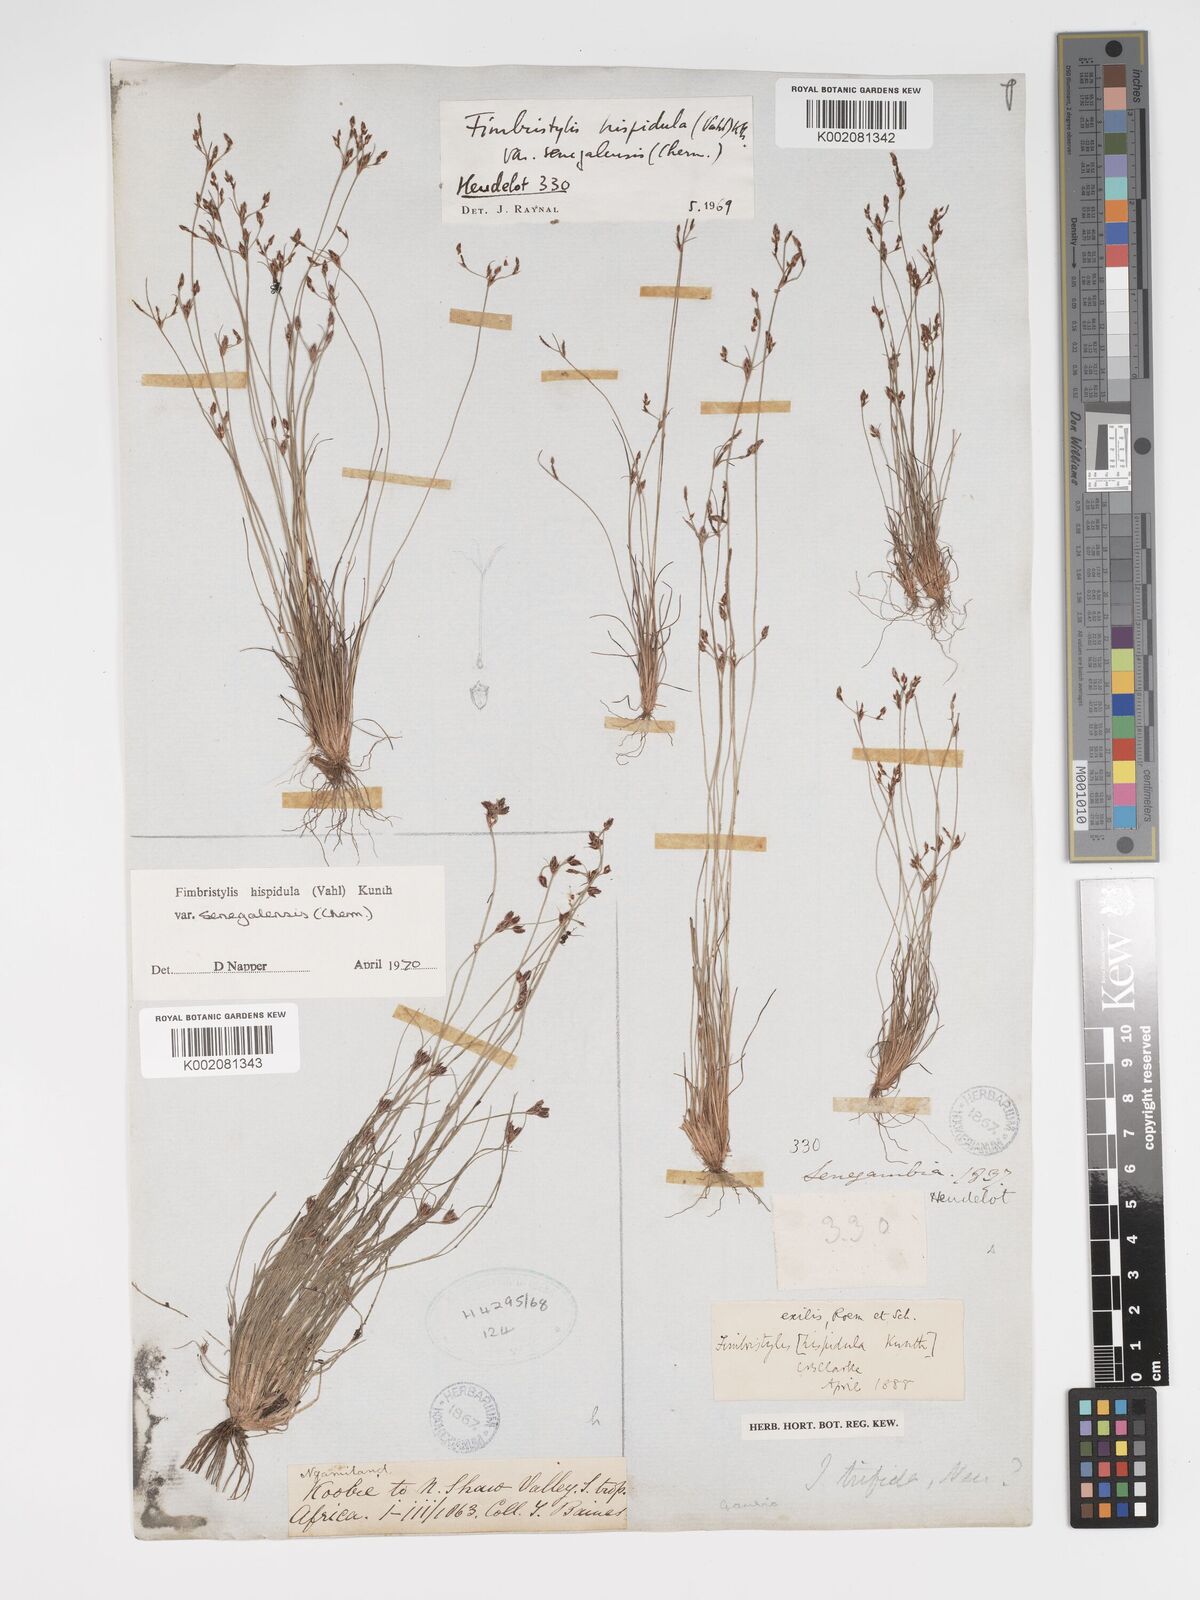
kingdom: Plantae
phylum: Tracheophyta
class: Liliopsida
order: Poales
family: Cyperaceae
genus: Bulbostylis
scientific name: Bulbostylis hispidula
